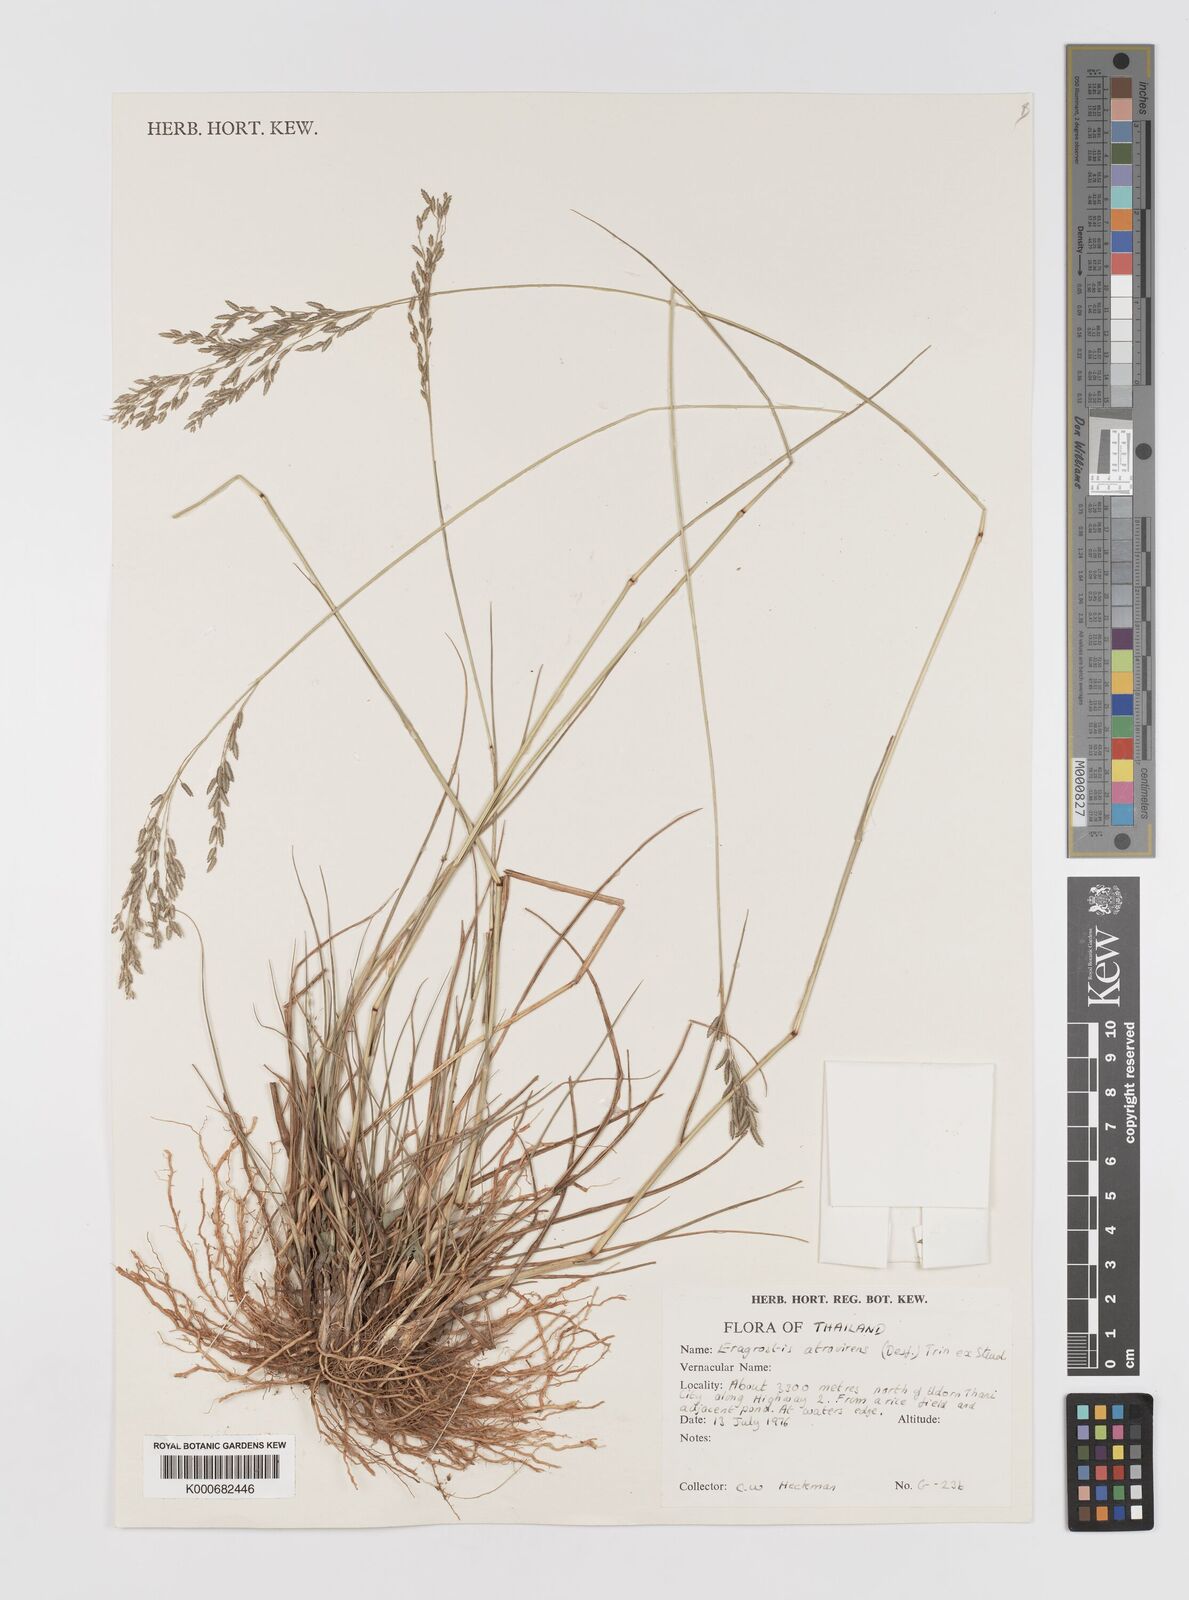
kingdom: Plantae
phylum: Tracheophyta
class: Liliopsida
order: Poales
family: Poaceae
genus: Eragrostis
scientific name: Eragrostis
